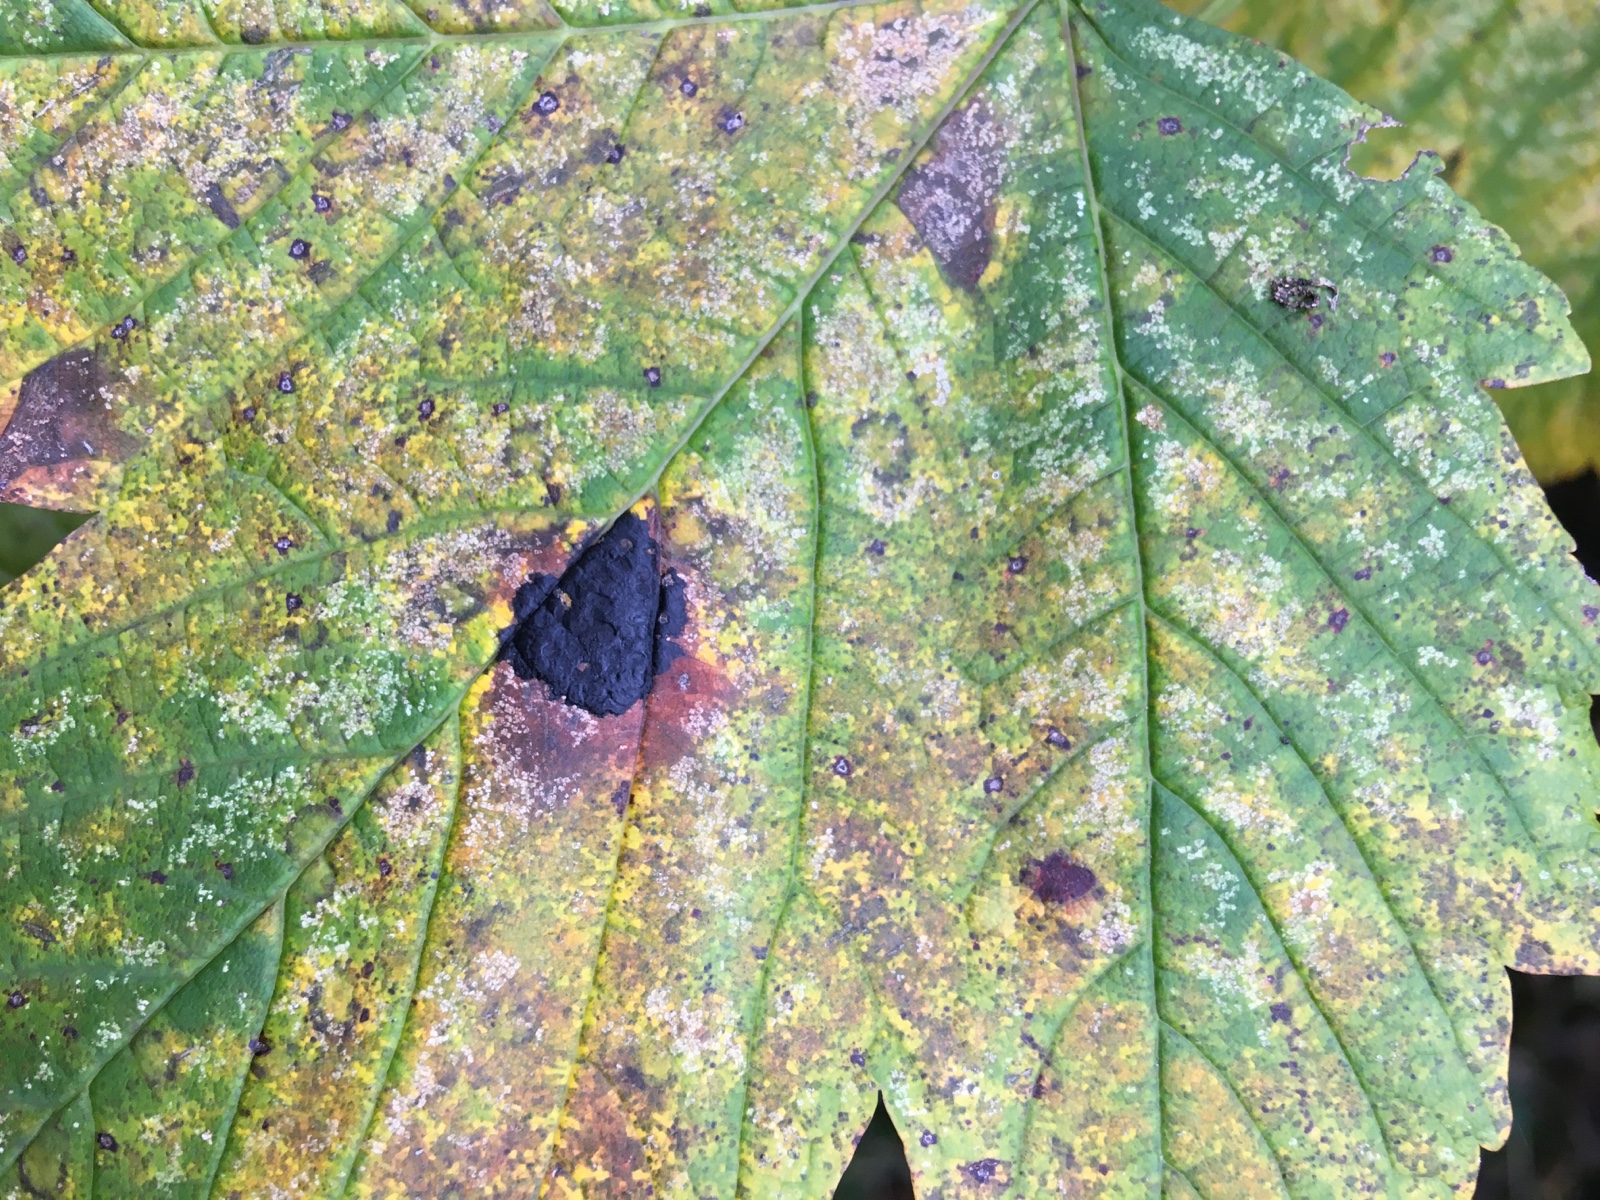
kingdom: Fungi
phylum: Ascomycota
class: Leotiomycetes
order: Rhytismatales
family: Rhytismataceae
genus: Rhytisma
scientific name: Rhytisma acerinum
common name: ahorn-rynkeplet
